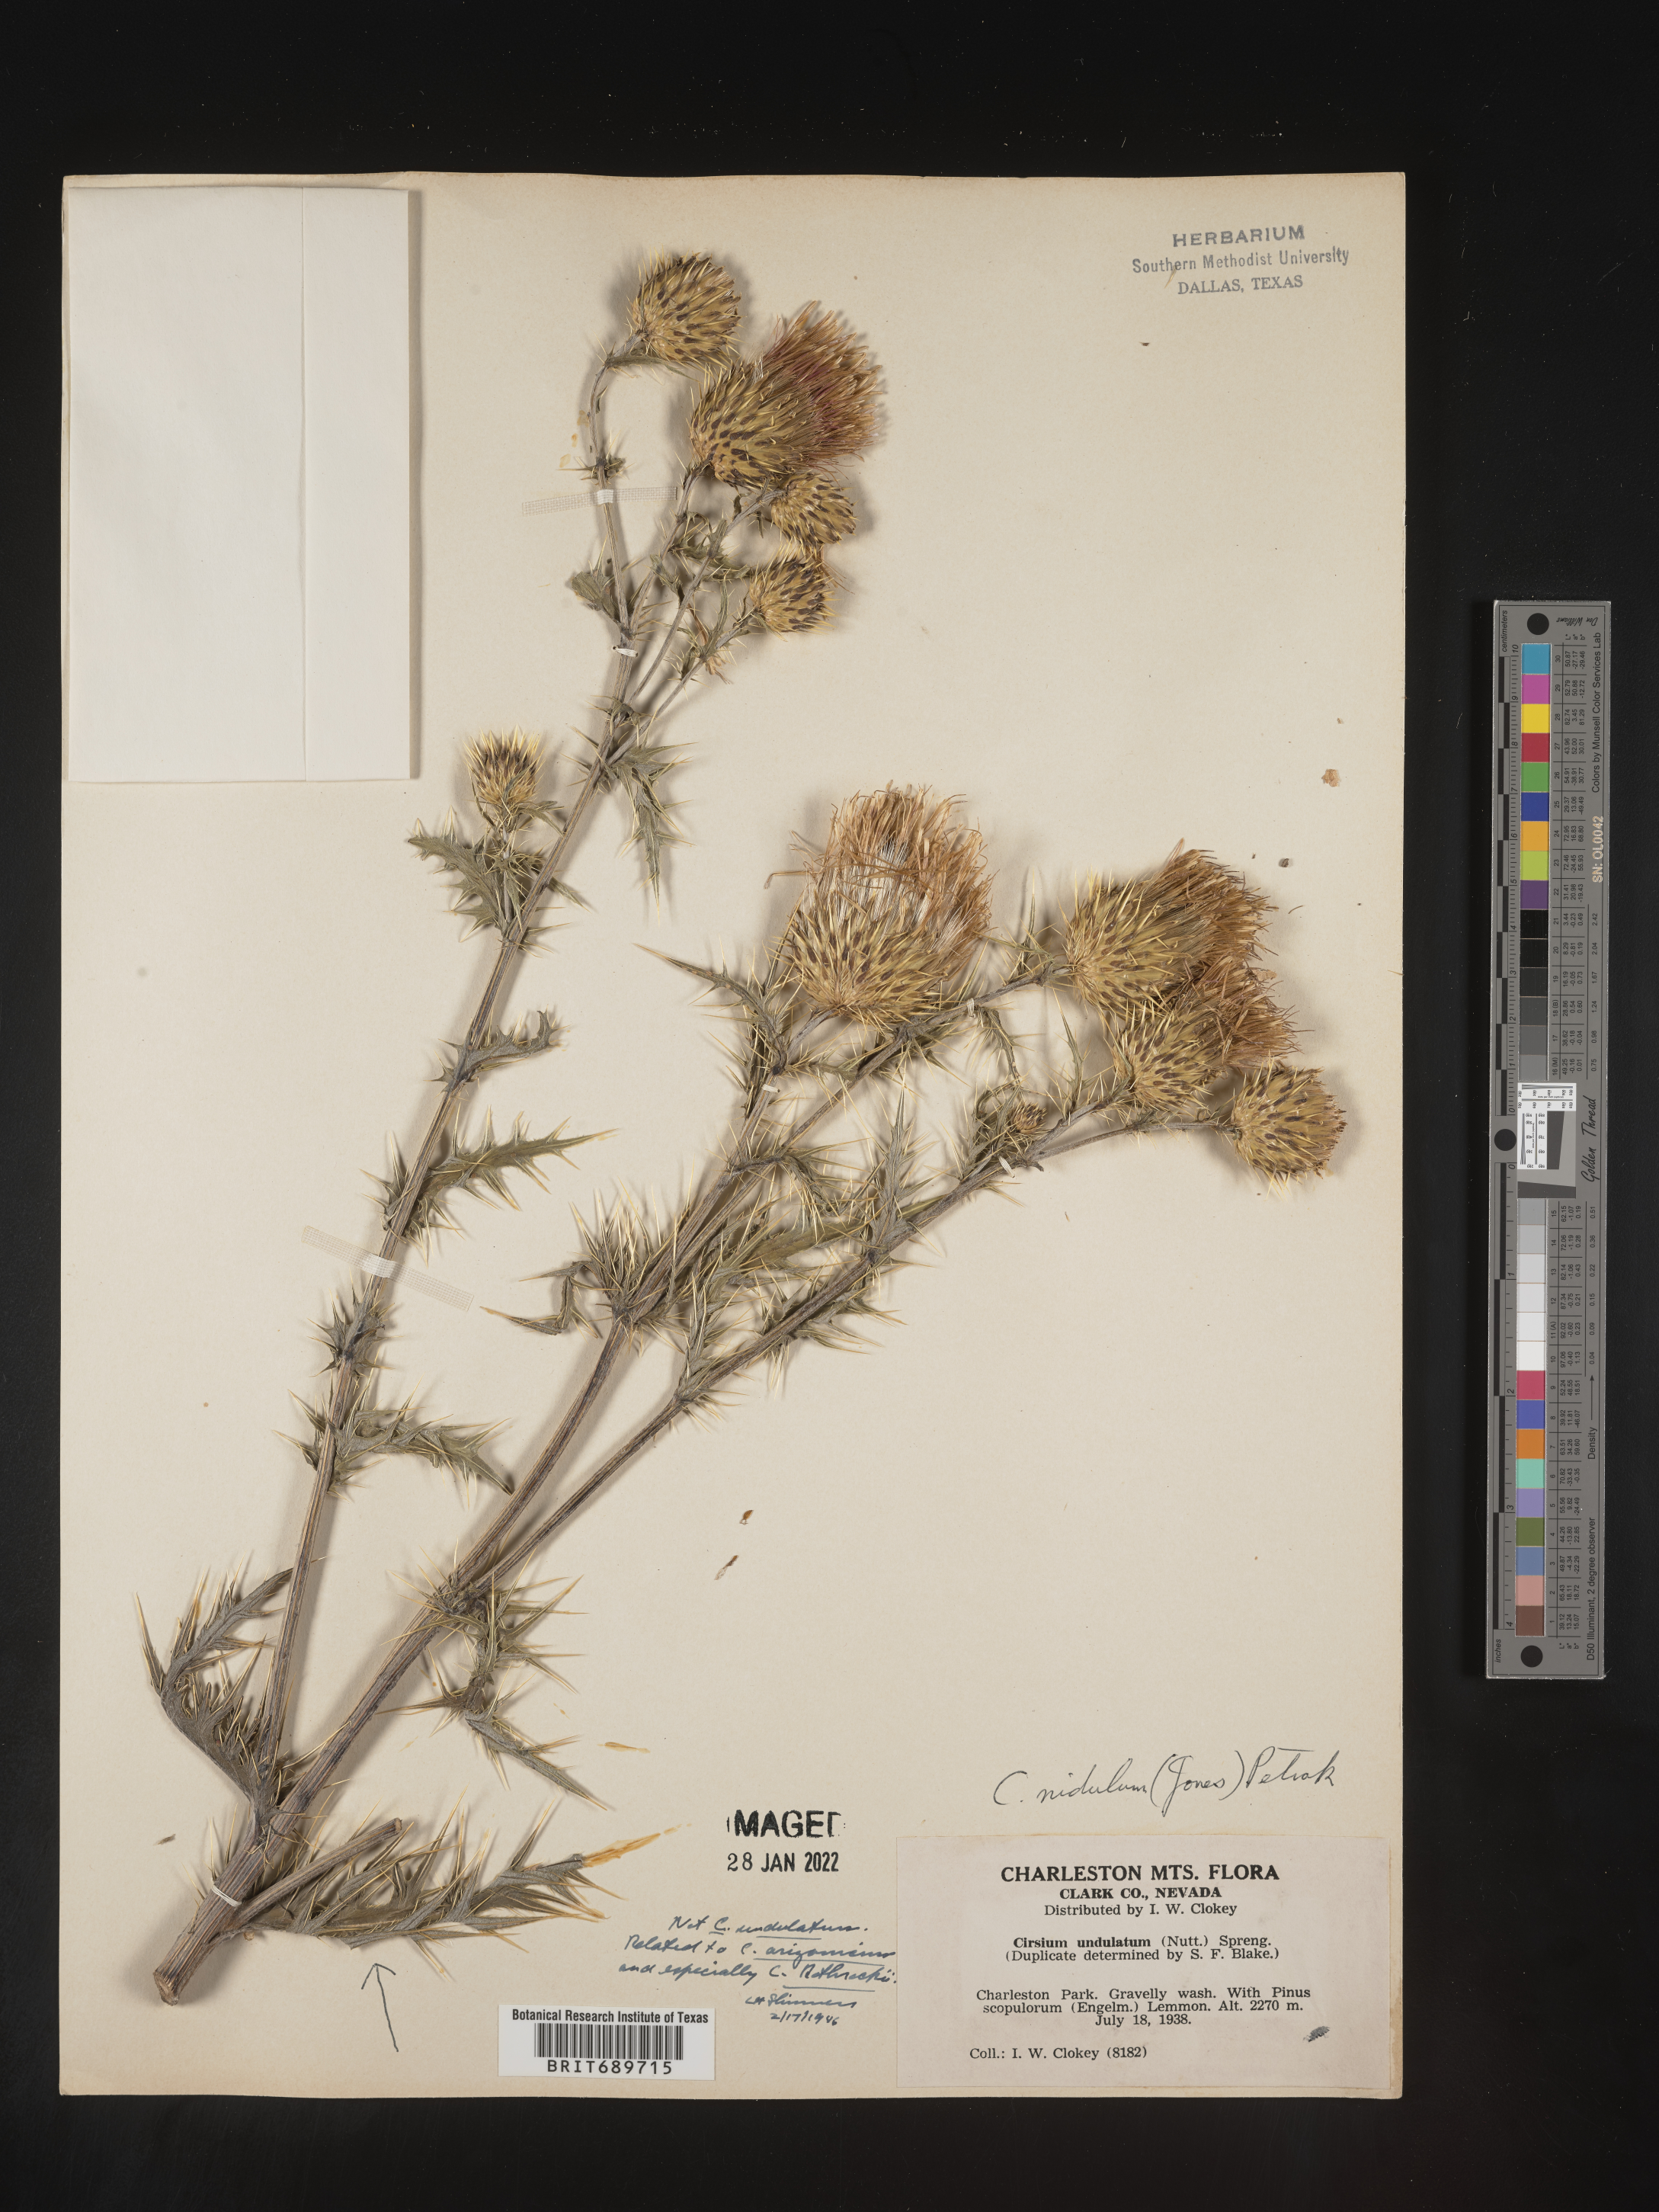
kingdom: Plantae
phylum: Tracheophyta
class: Magnoliopsida
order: Asterales
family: Asteraceae
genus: Cirsium
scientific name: Cirsium
